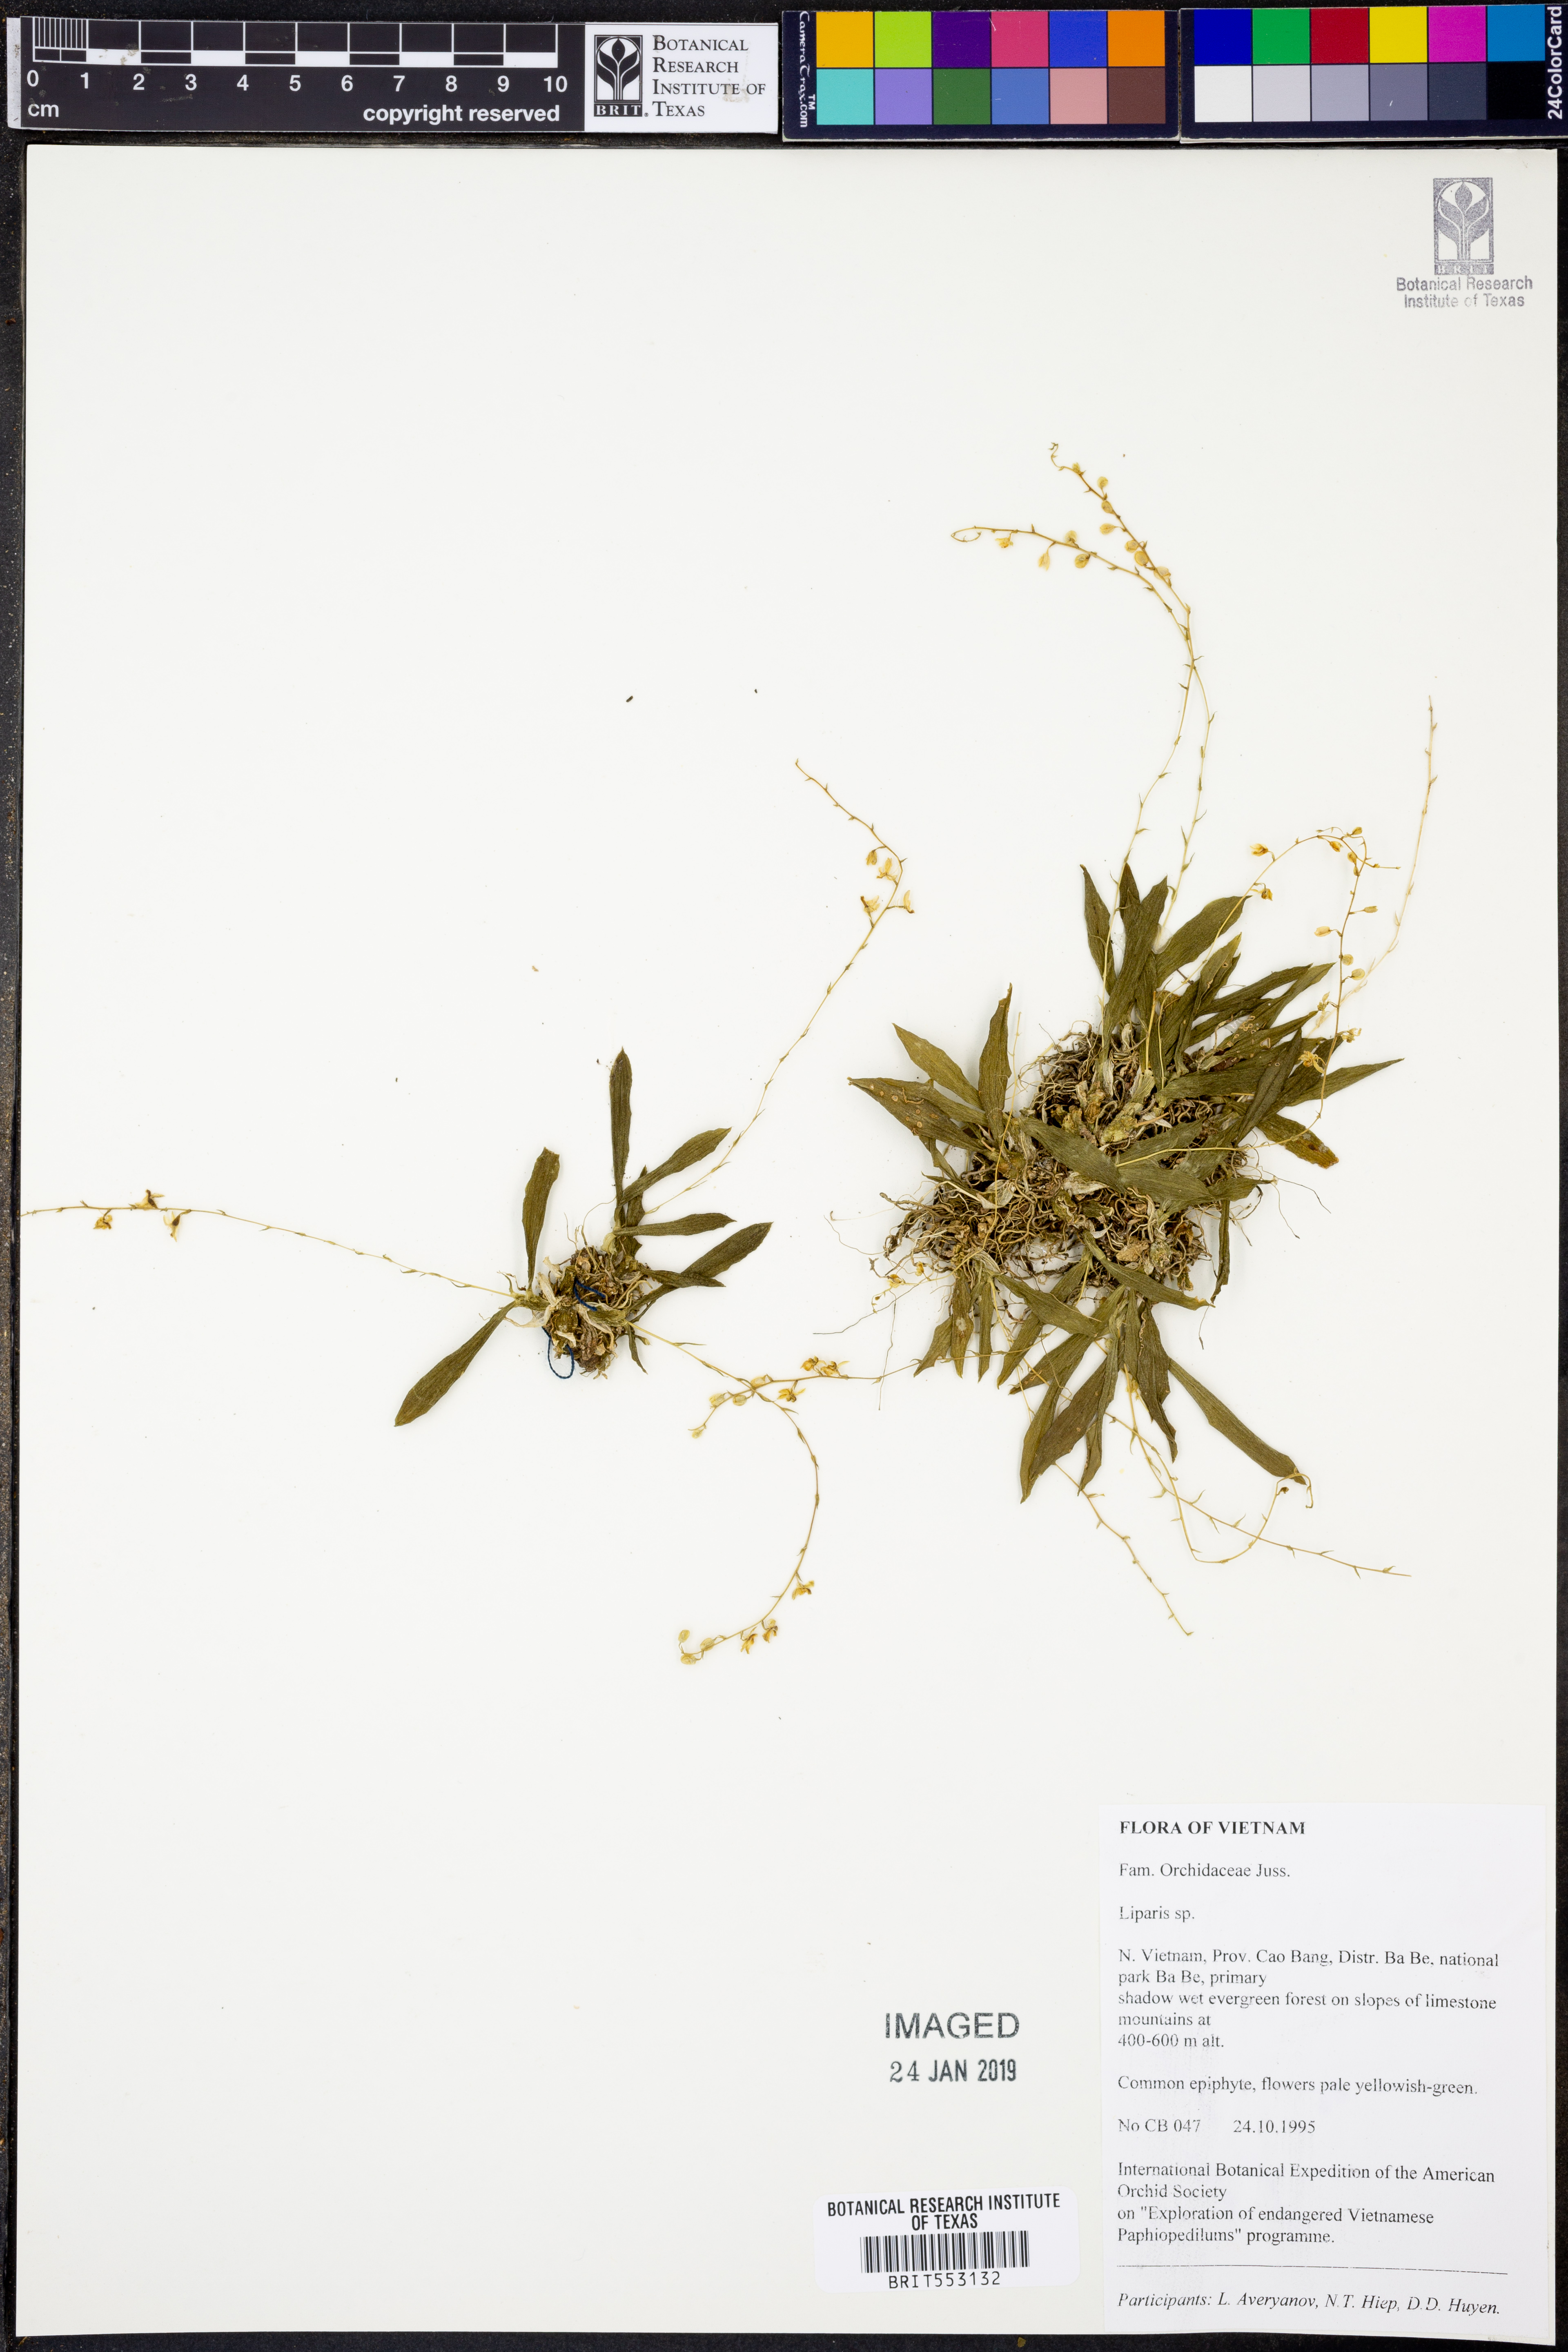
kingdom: Plantae
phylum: Tracheophyta
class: Liliopsida
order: Asparagales
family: Orchidaceae
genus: Liparis
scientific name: Liparis
